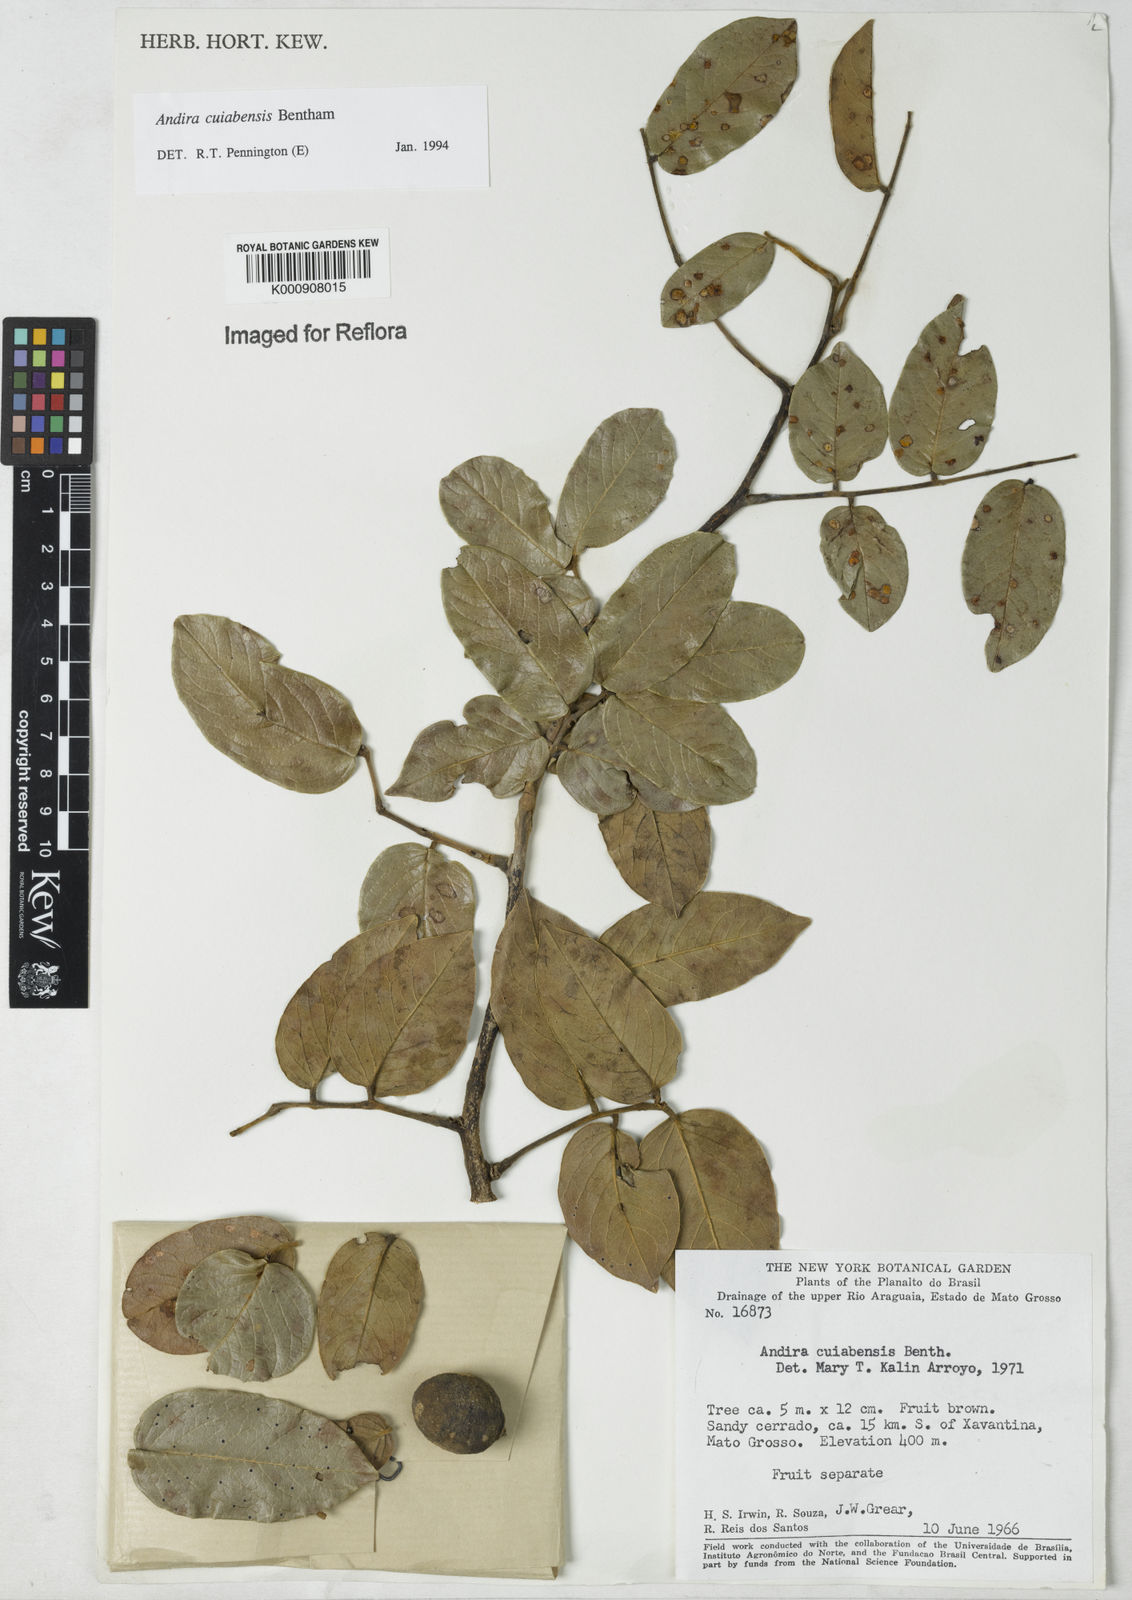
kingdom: Plantae
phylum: Tracheophyta
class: Magnoliopsida
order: Fabales
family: Fabaceae
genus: Andira
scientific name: Andira cujabensis
